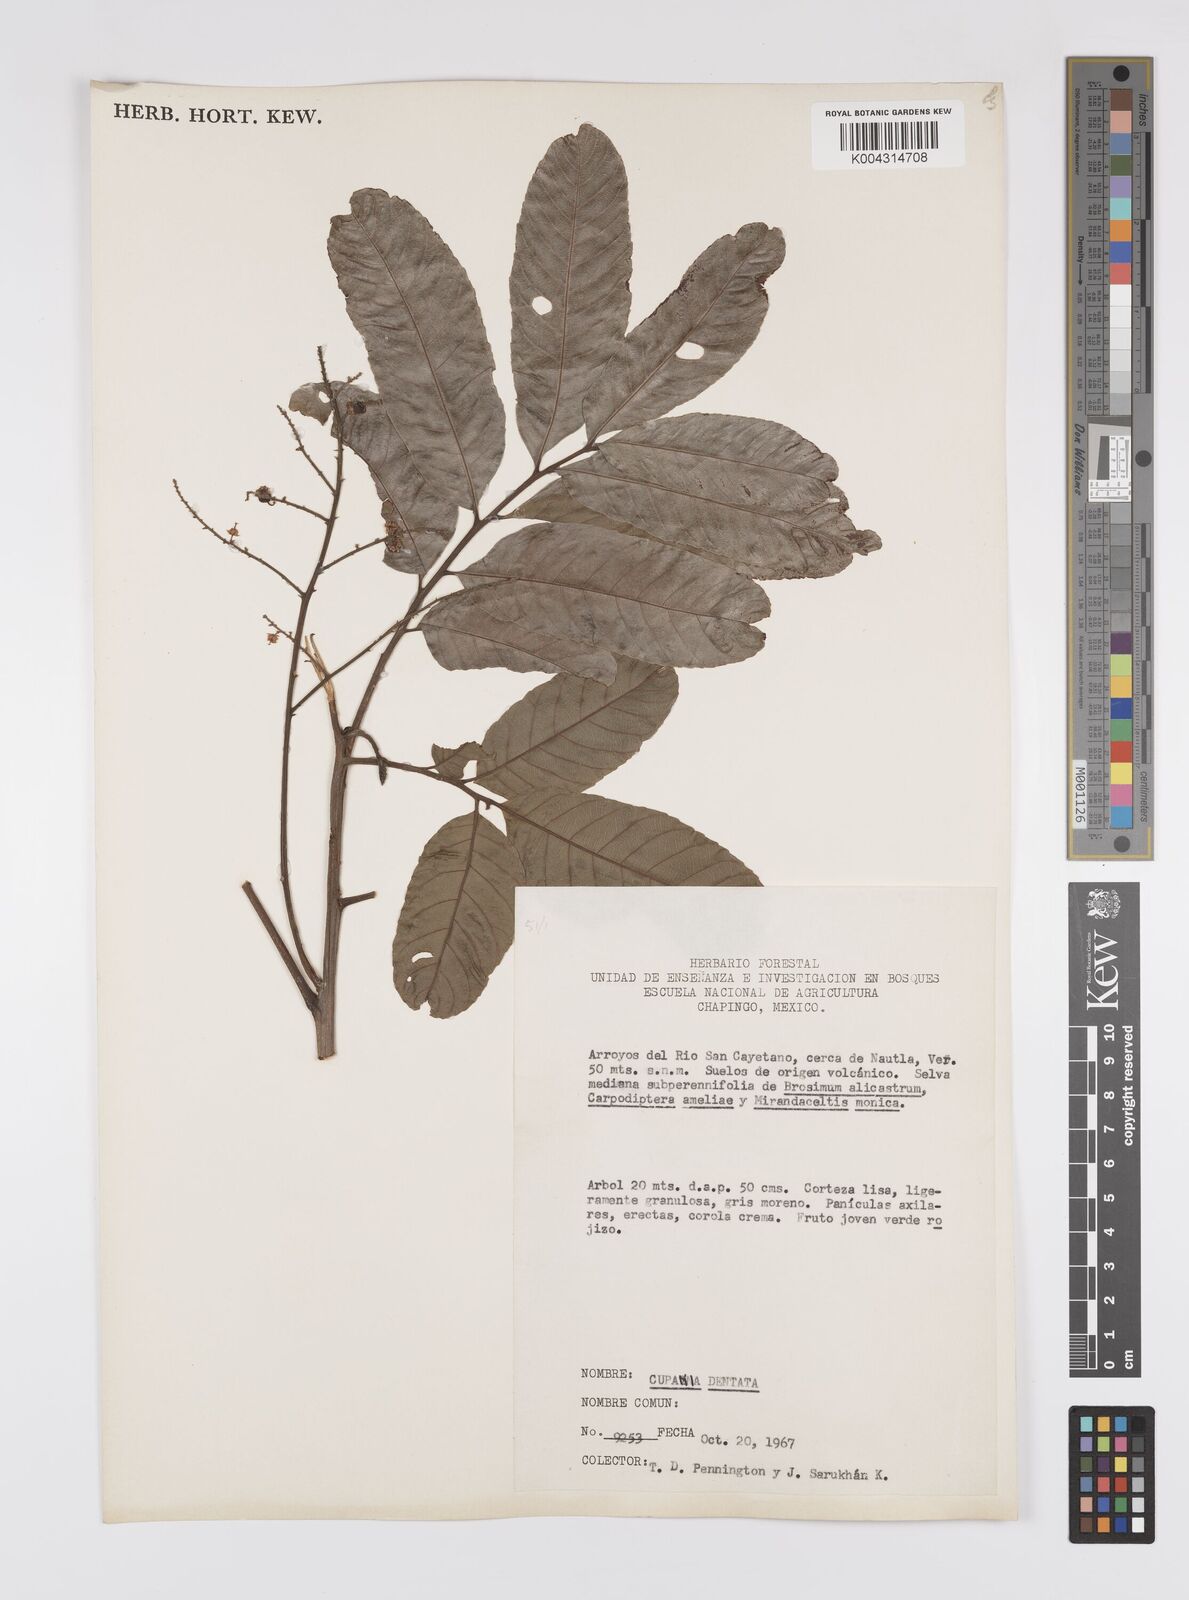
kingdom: Plantae
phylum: Tracheophyta
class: Magnoliopsida
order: Sapindales
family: Sapindaceae
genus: Cupania
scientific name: Cupania dentata
